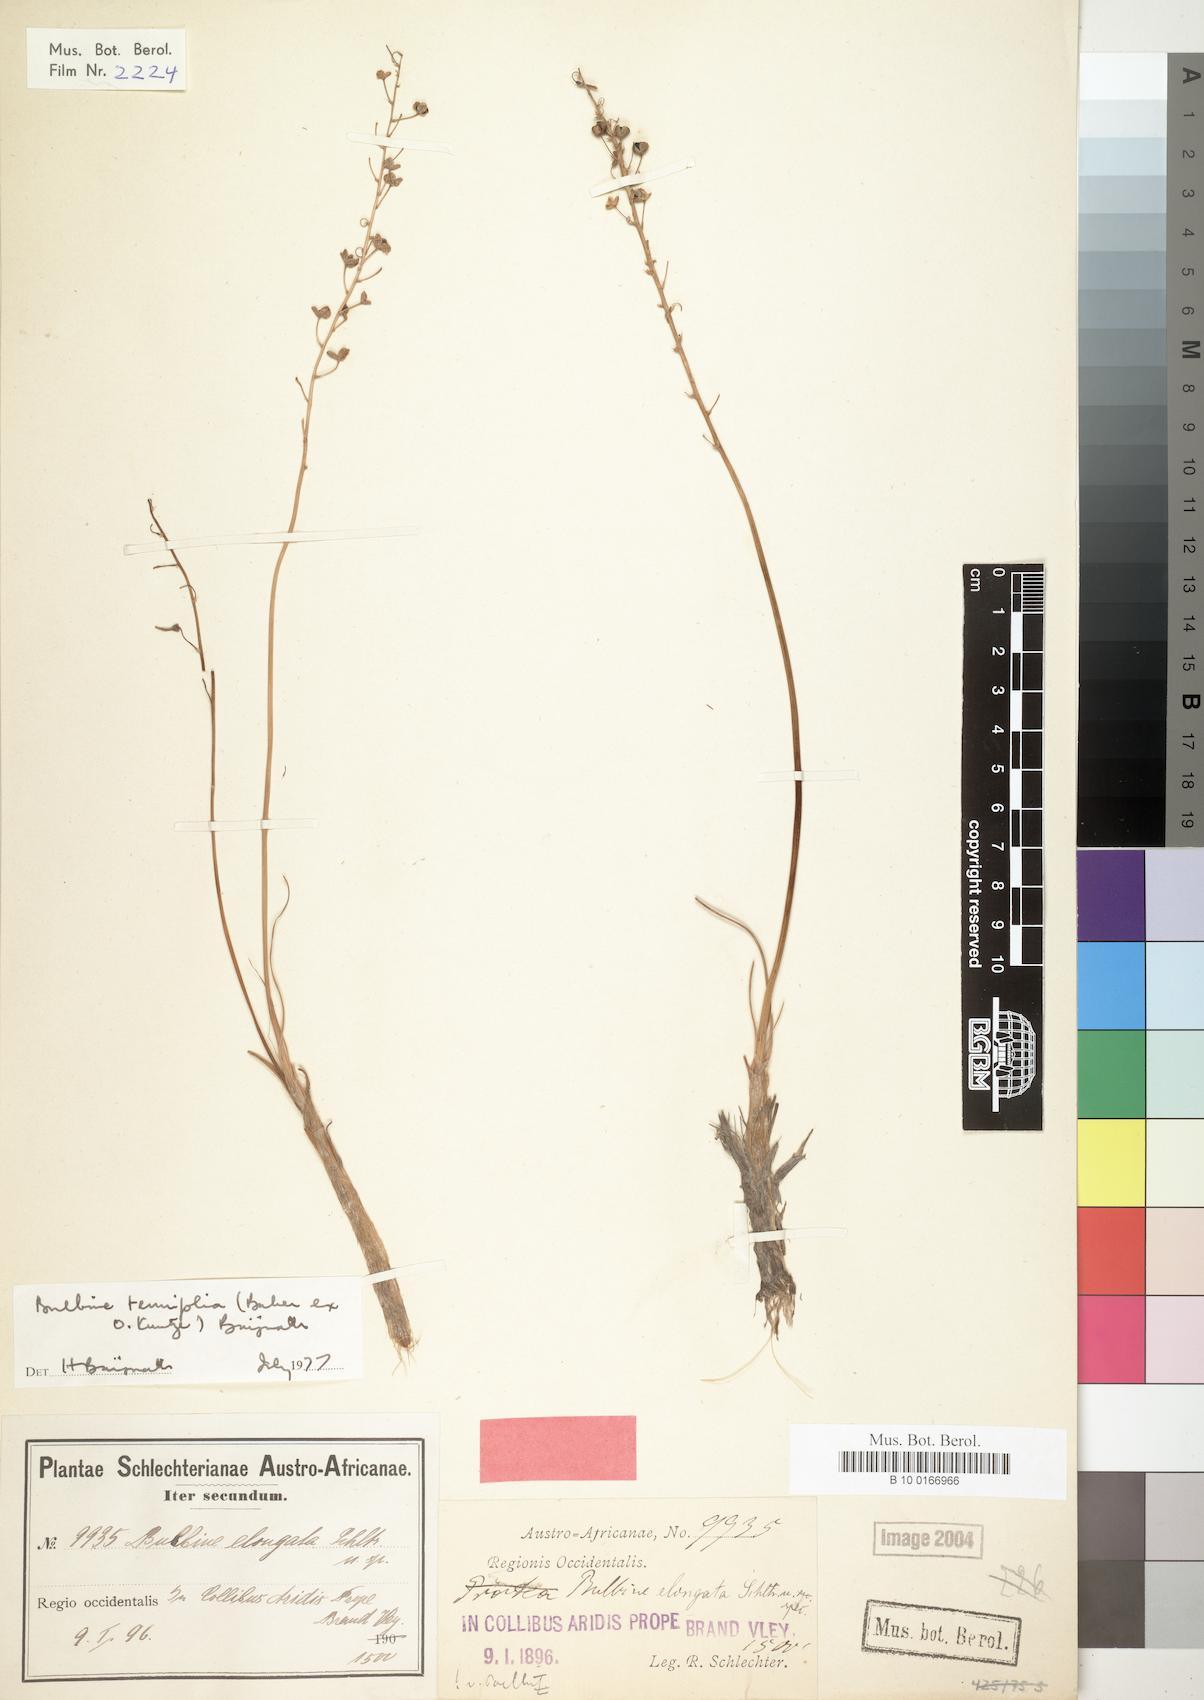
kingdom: Plantae
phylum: Tracheophyta
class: Liliopsida
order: Liliales
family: Liliaceae
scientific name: Liliaceae
